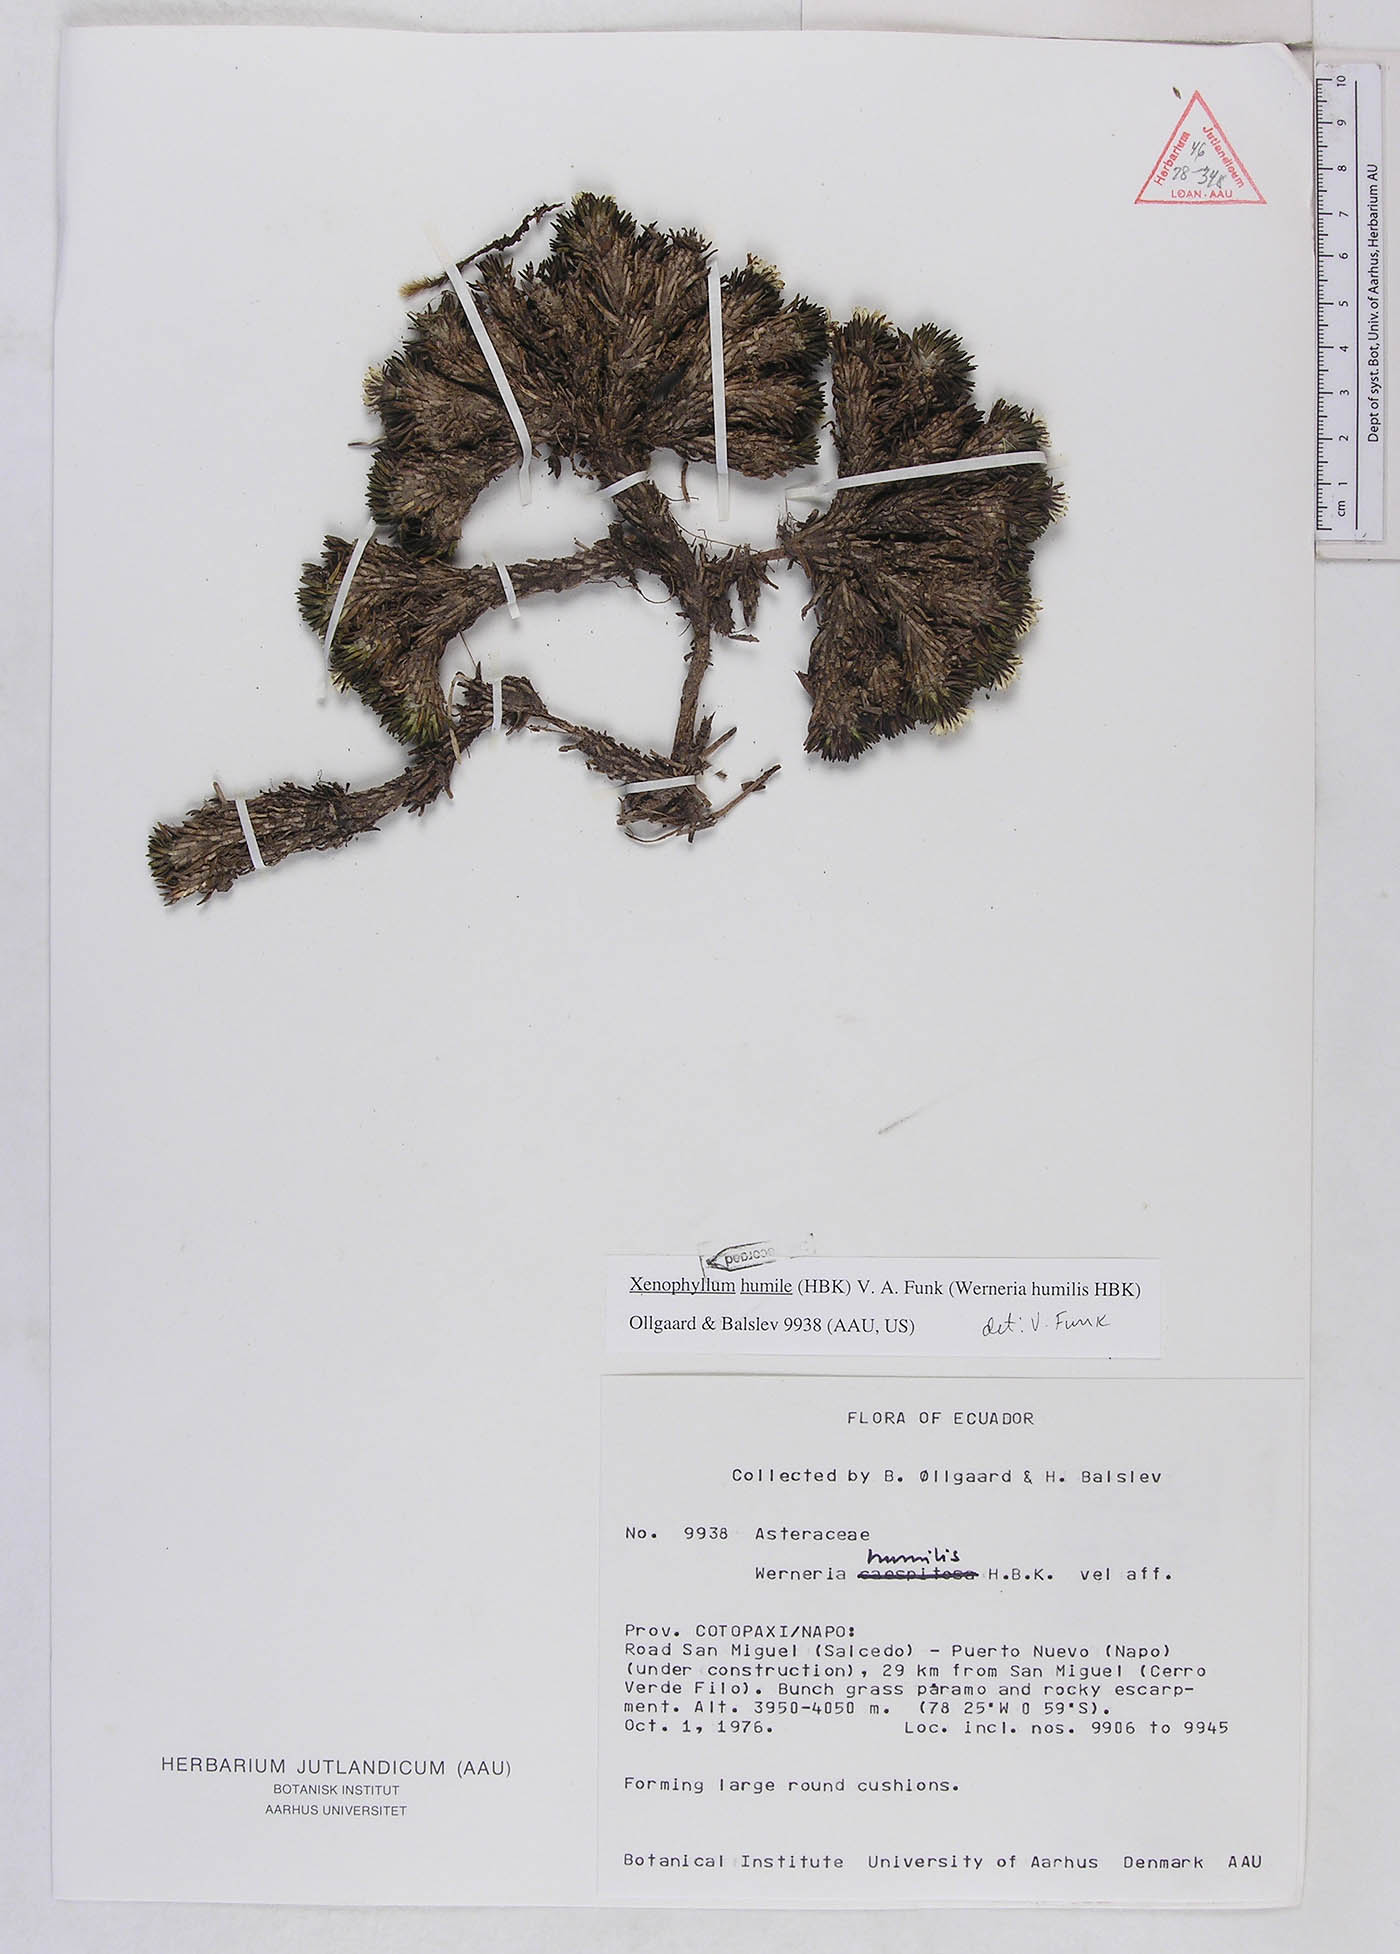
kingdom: Plantae
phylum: Tracheophyta
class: Magnoliopsida
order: Asterales
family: Asteraceae
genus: Werneria
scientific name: Werneria humilis
